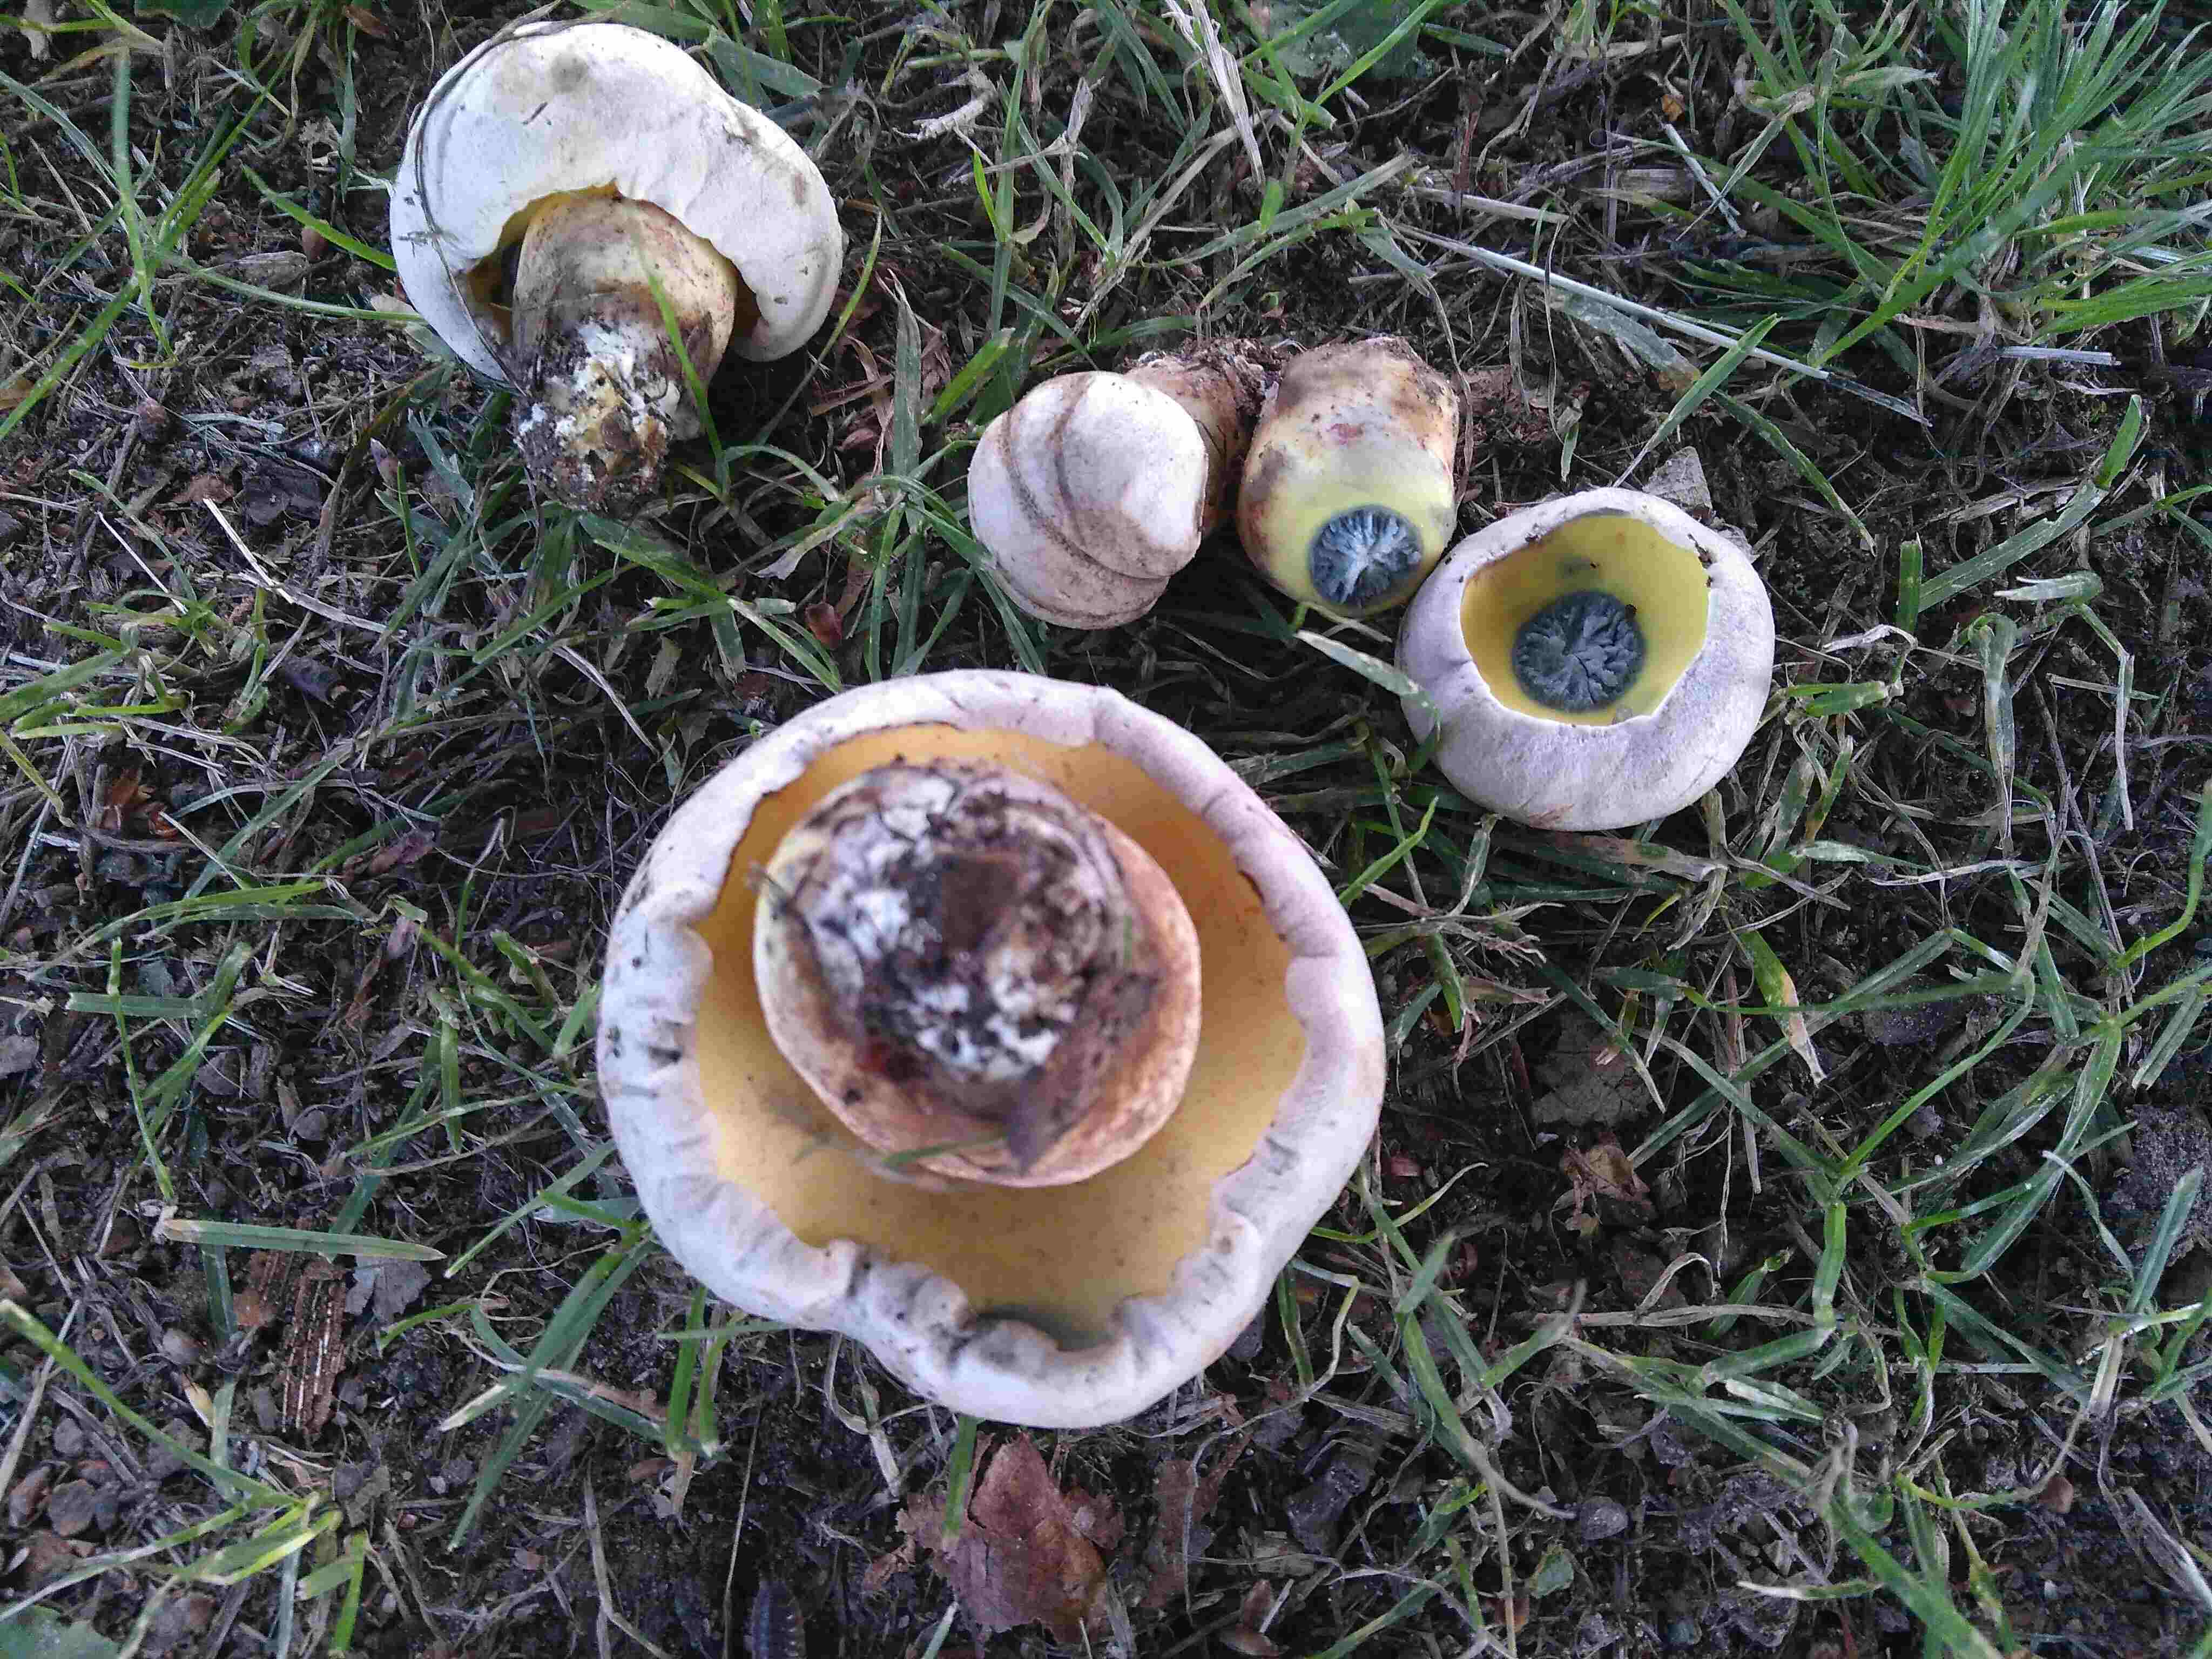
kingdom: Fungi
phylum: Basidiomycota
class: Agaricomycetes
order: Boletales
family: Boletaceae
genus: Caloboletus
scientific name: Caloboletus radicans
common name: rod-rørhat
